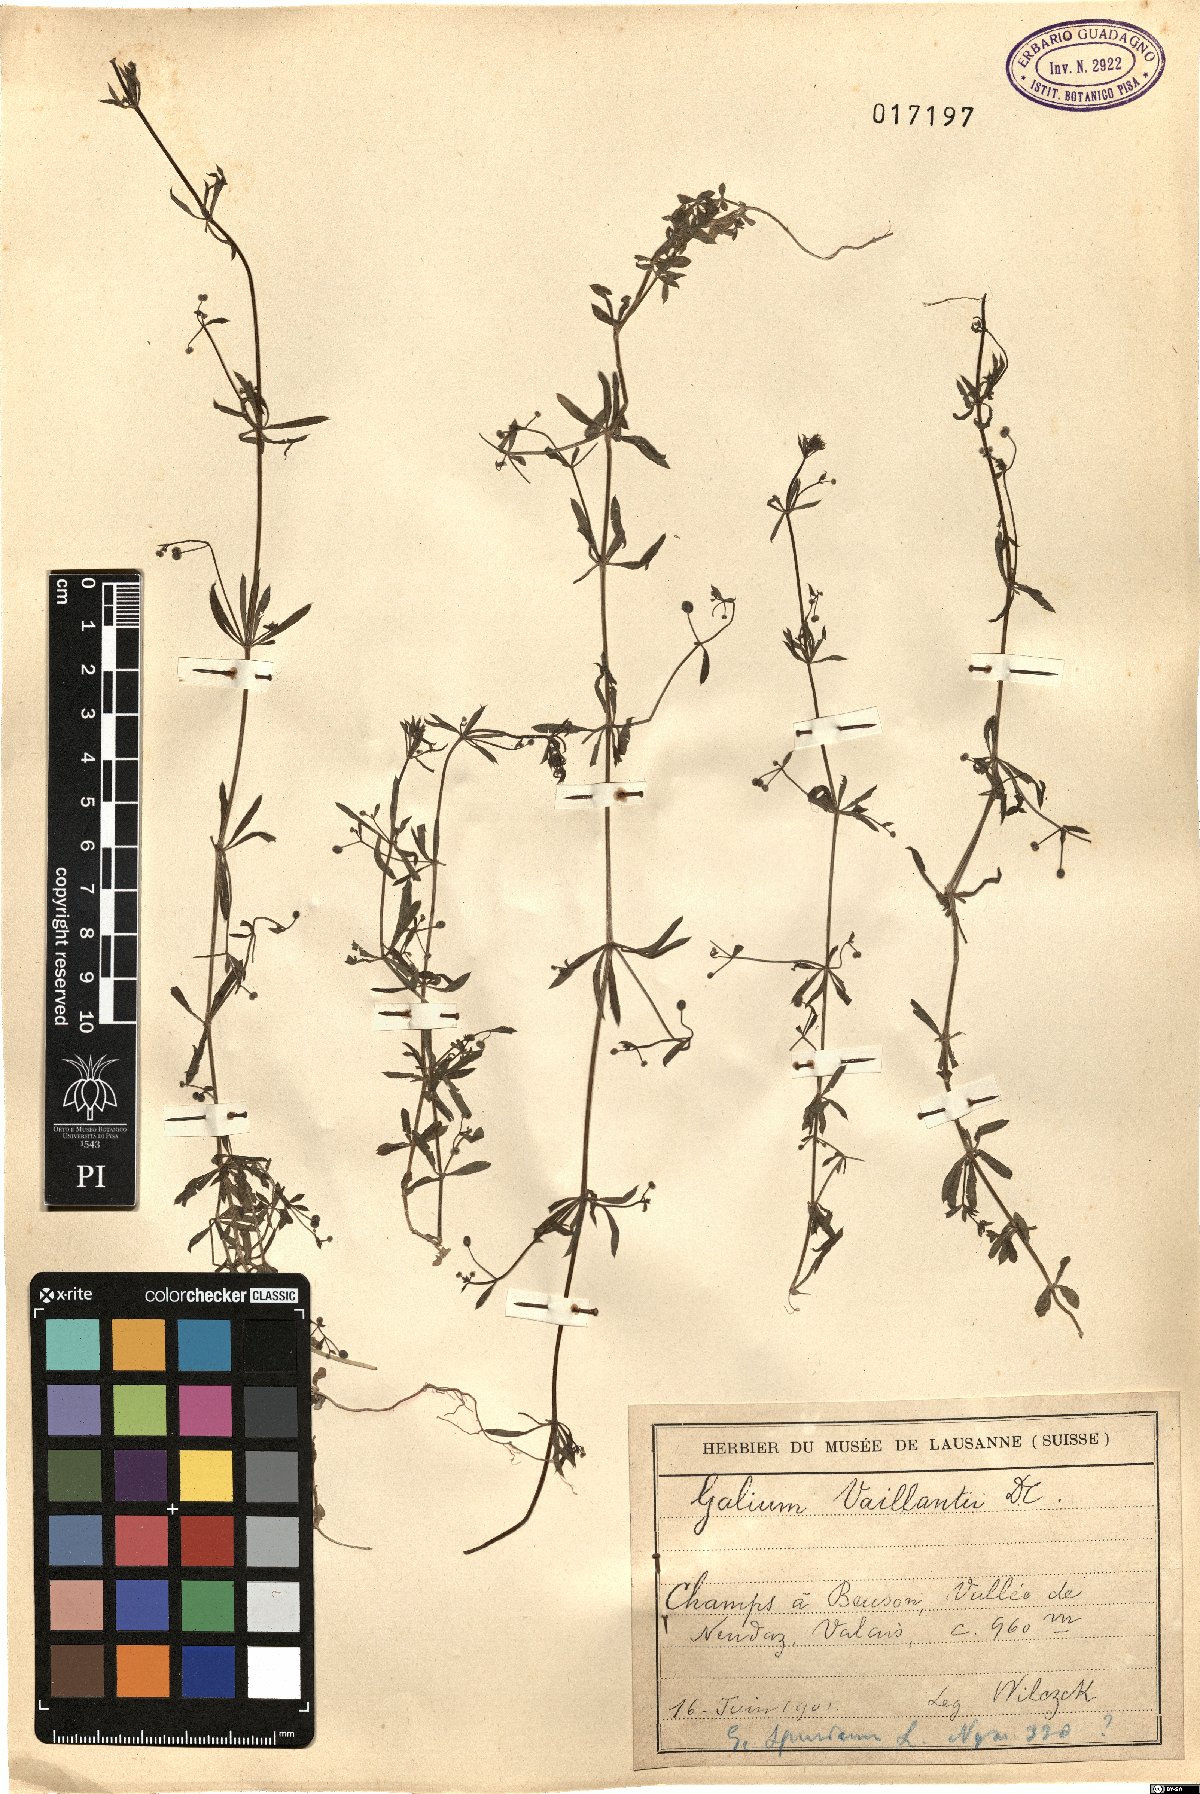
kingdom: Plantae
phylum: Tracheophyta
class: Magnoliopsida
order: Gentianales
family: Rubiaceae
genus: Galium
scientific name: Galium spurium
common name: False cleavers
